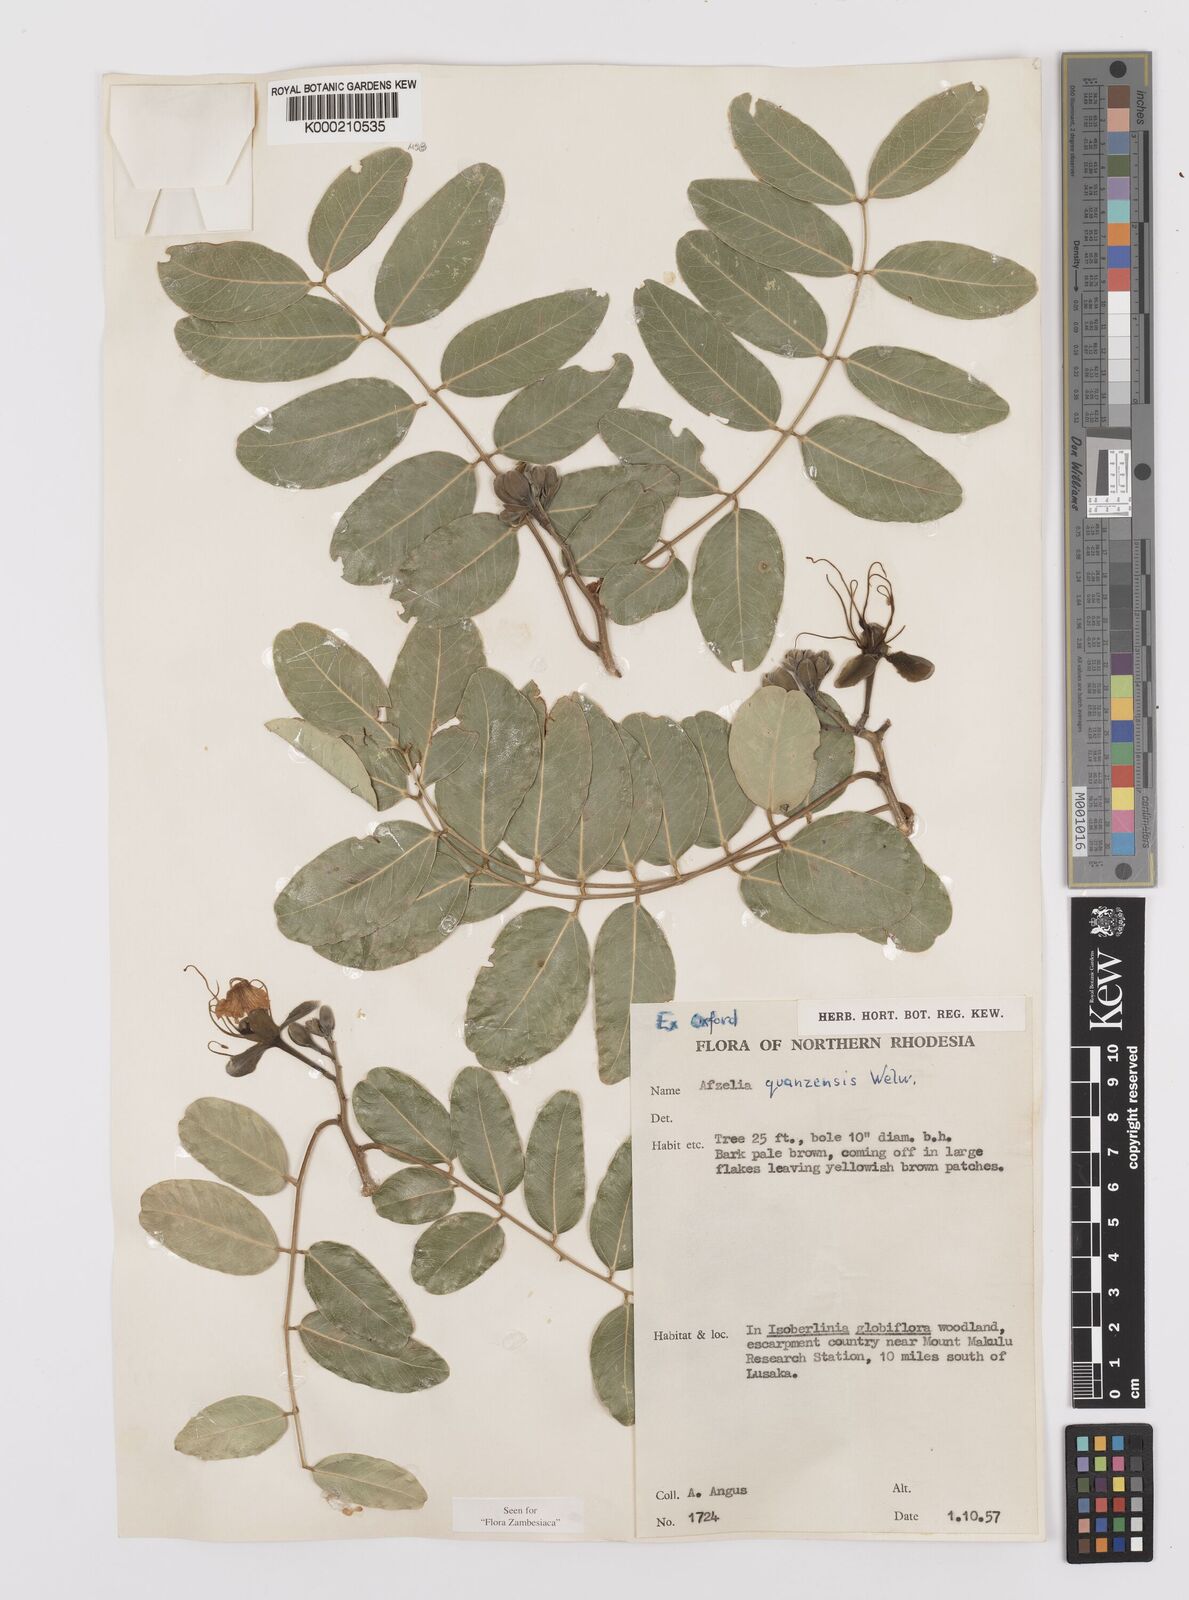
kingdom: Plantae
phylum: Tracheophyta
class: Magnoliopsida
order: Fabales
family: Fabaceae
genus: Afzelia
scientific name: Afzelia quanzensis
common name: Pod mahogany
